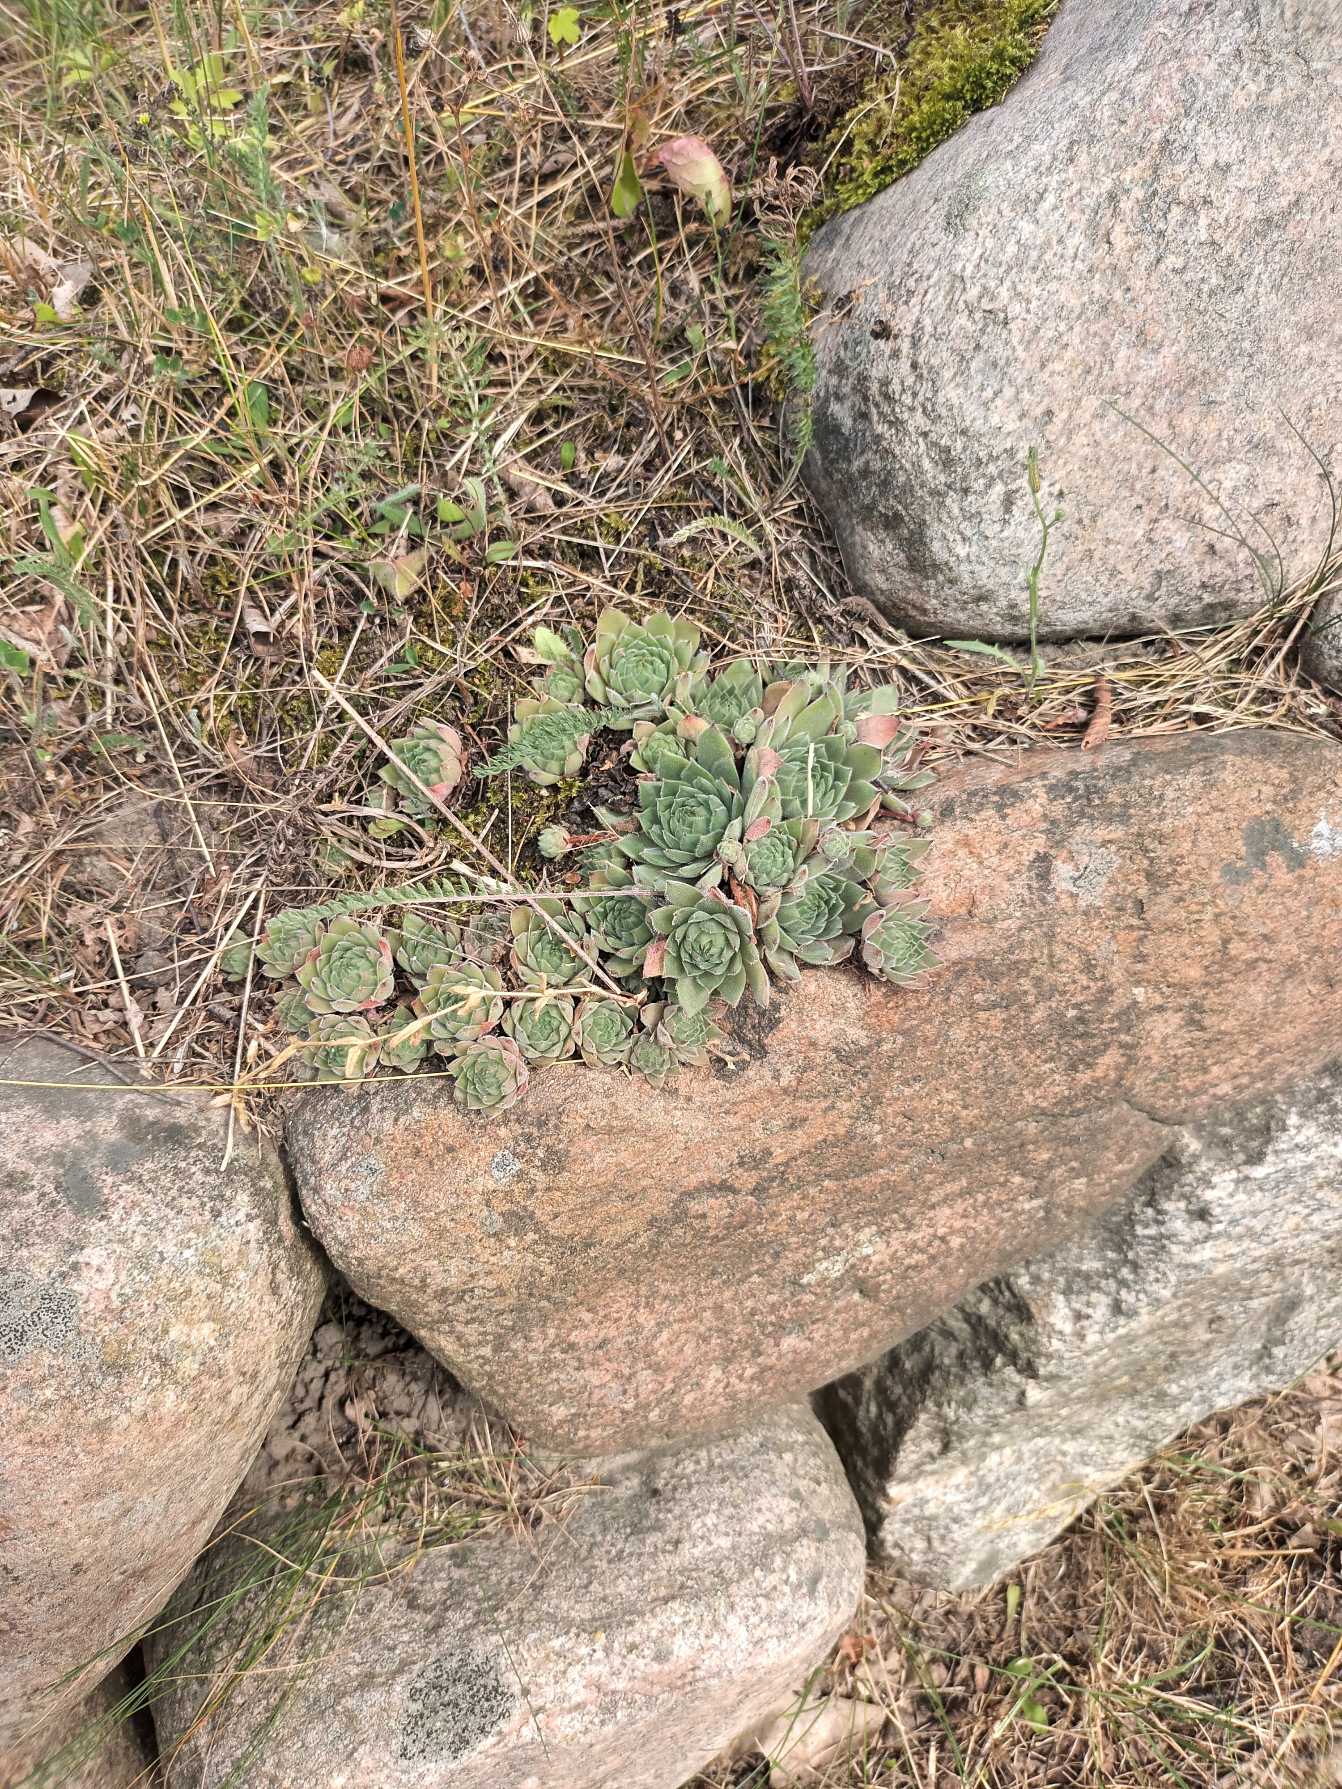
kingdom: Plantae
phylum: Tracheophyta
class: Magnoliopsida
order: Saxifragales
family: Crassulaceae
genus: Sempervivum
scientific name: Sempervivum tectorum
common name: Husløg
